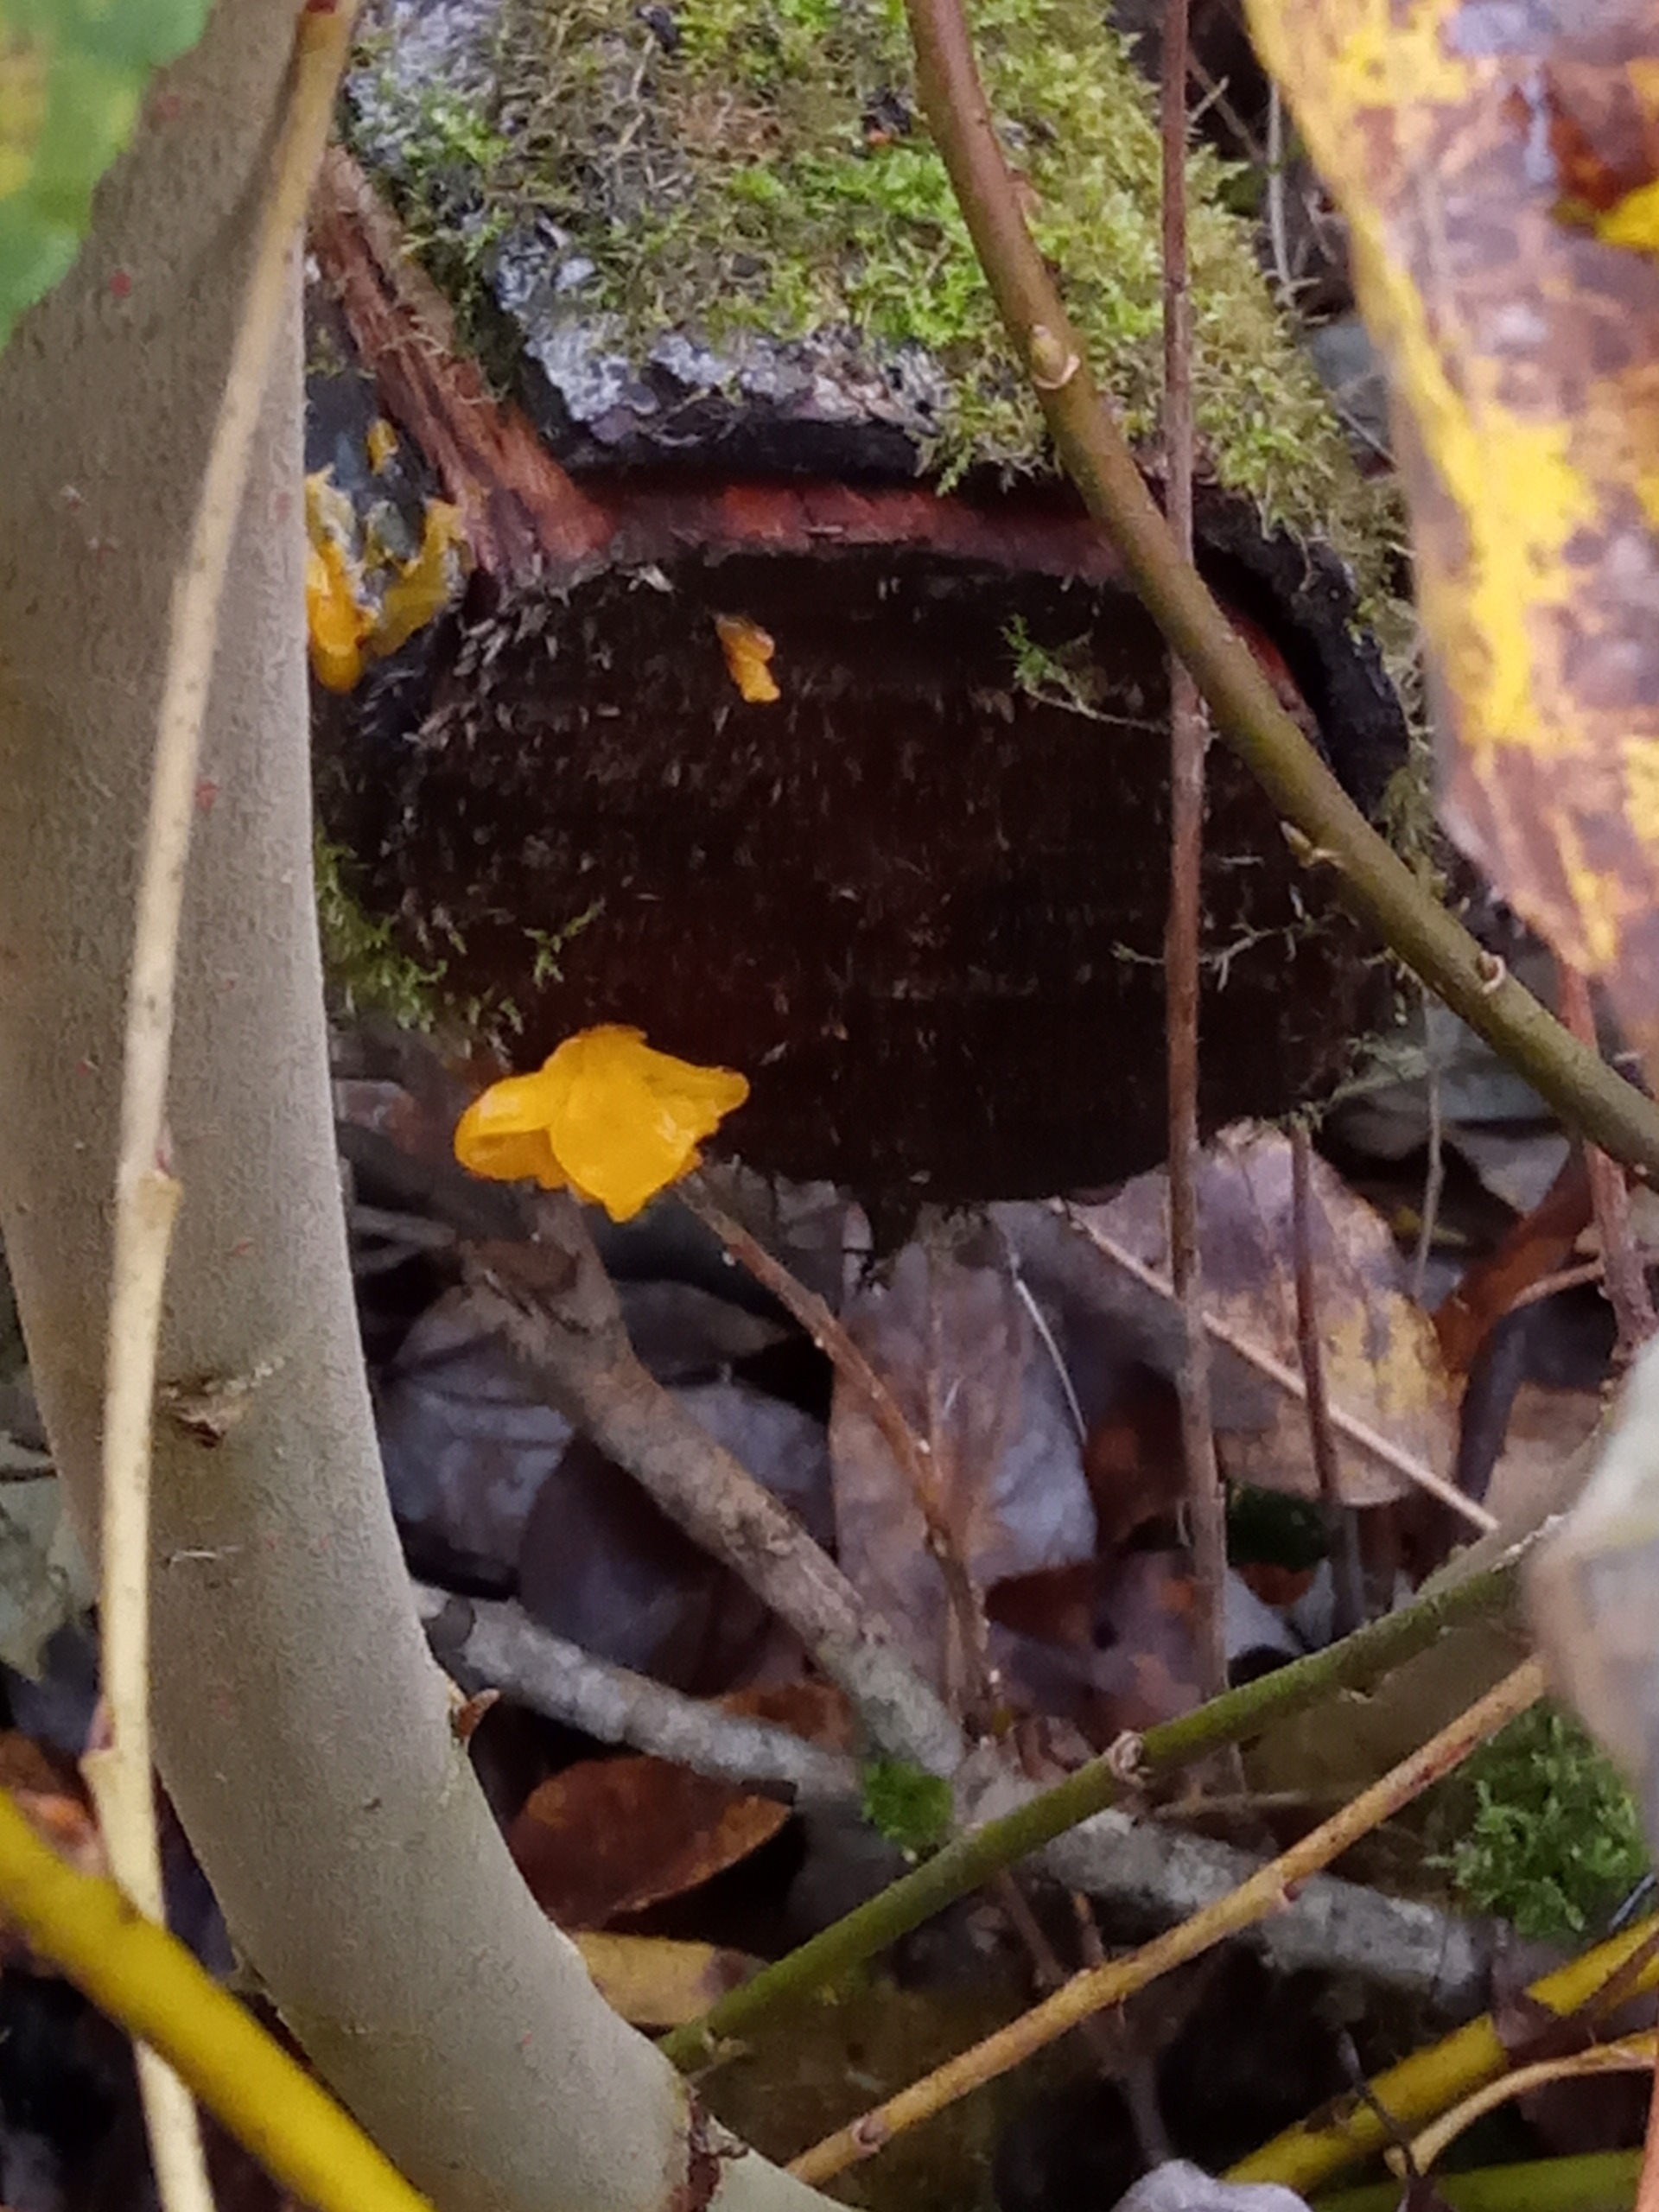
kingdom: Fungi
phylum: Basidiomycota
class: Tremellomycetes
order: Tremellales
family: Tremellaceae
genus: Tremella
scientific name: Tremella mesenterica
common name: Gul bævresvamp
